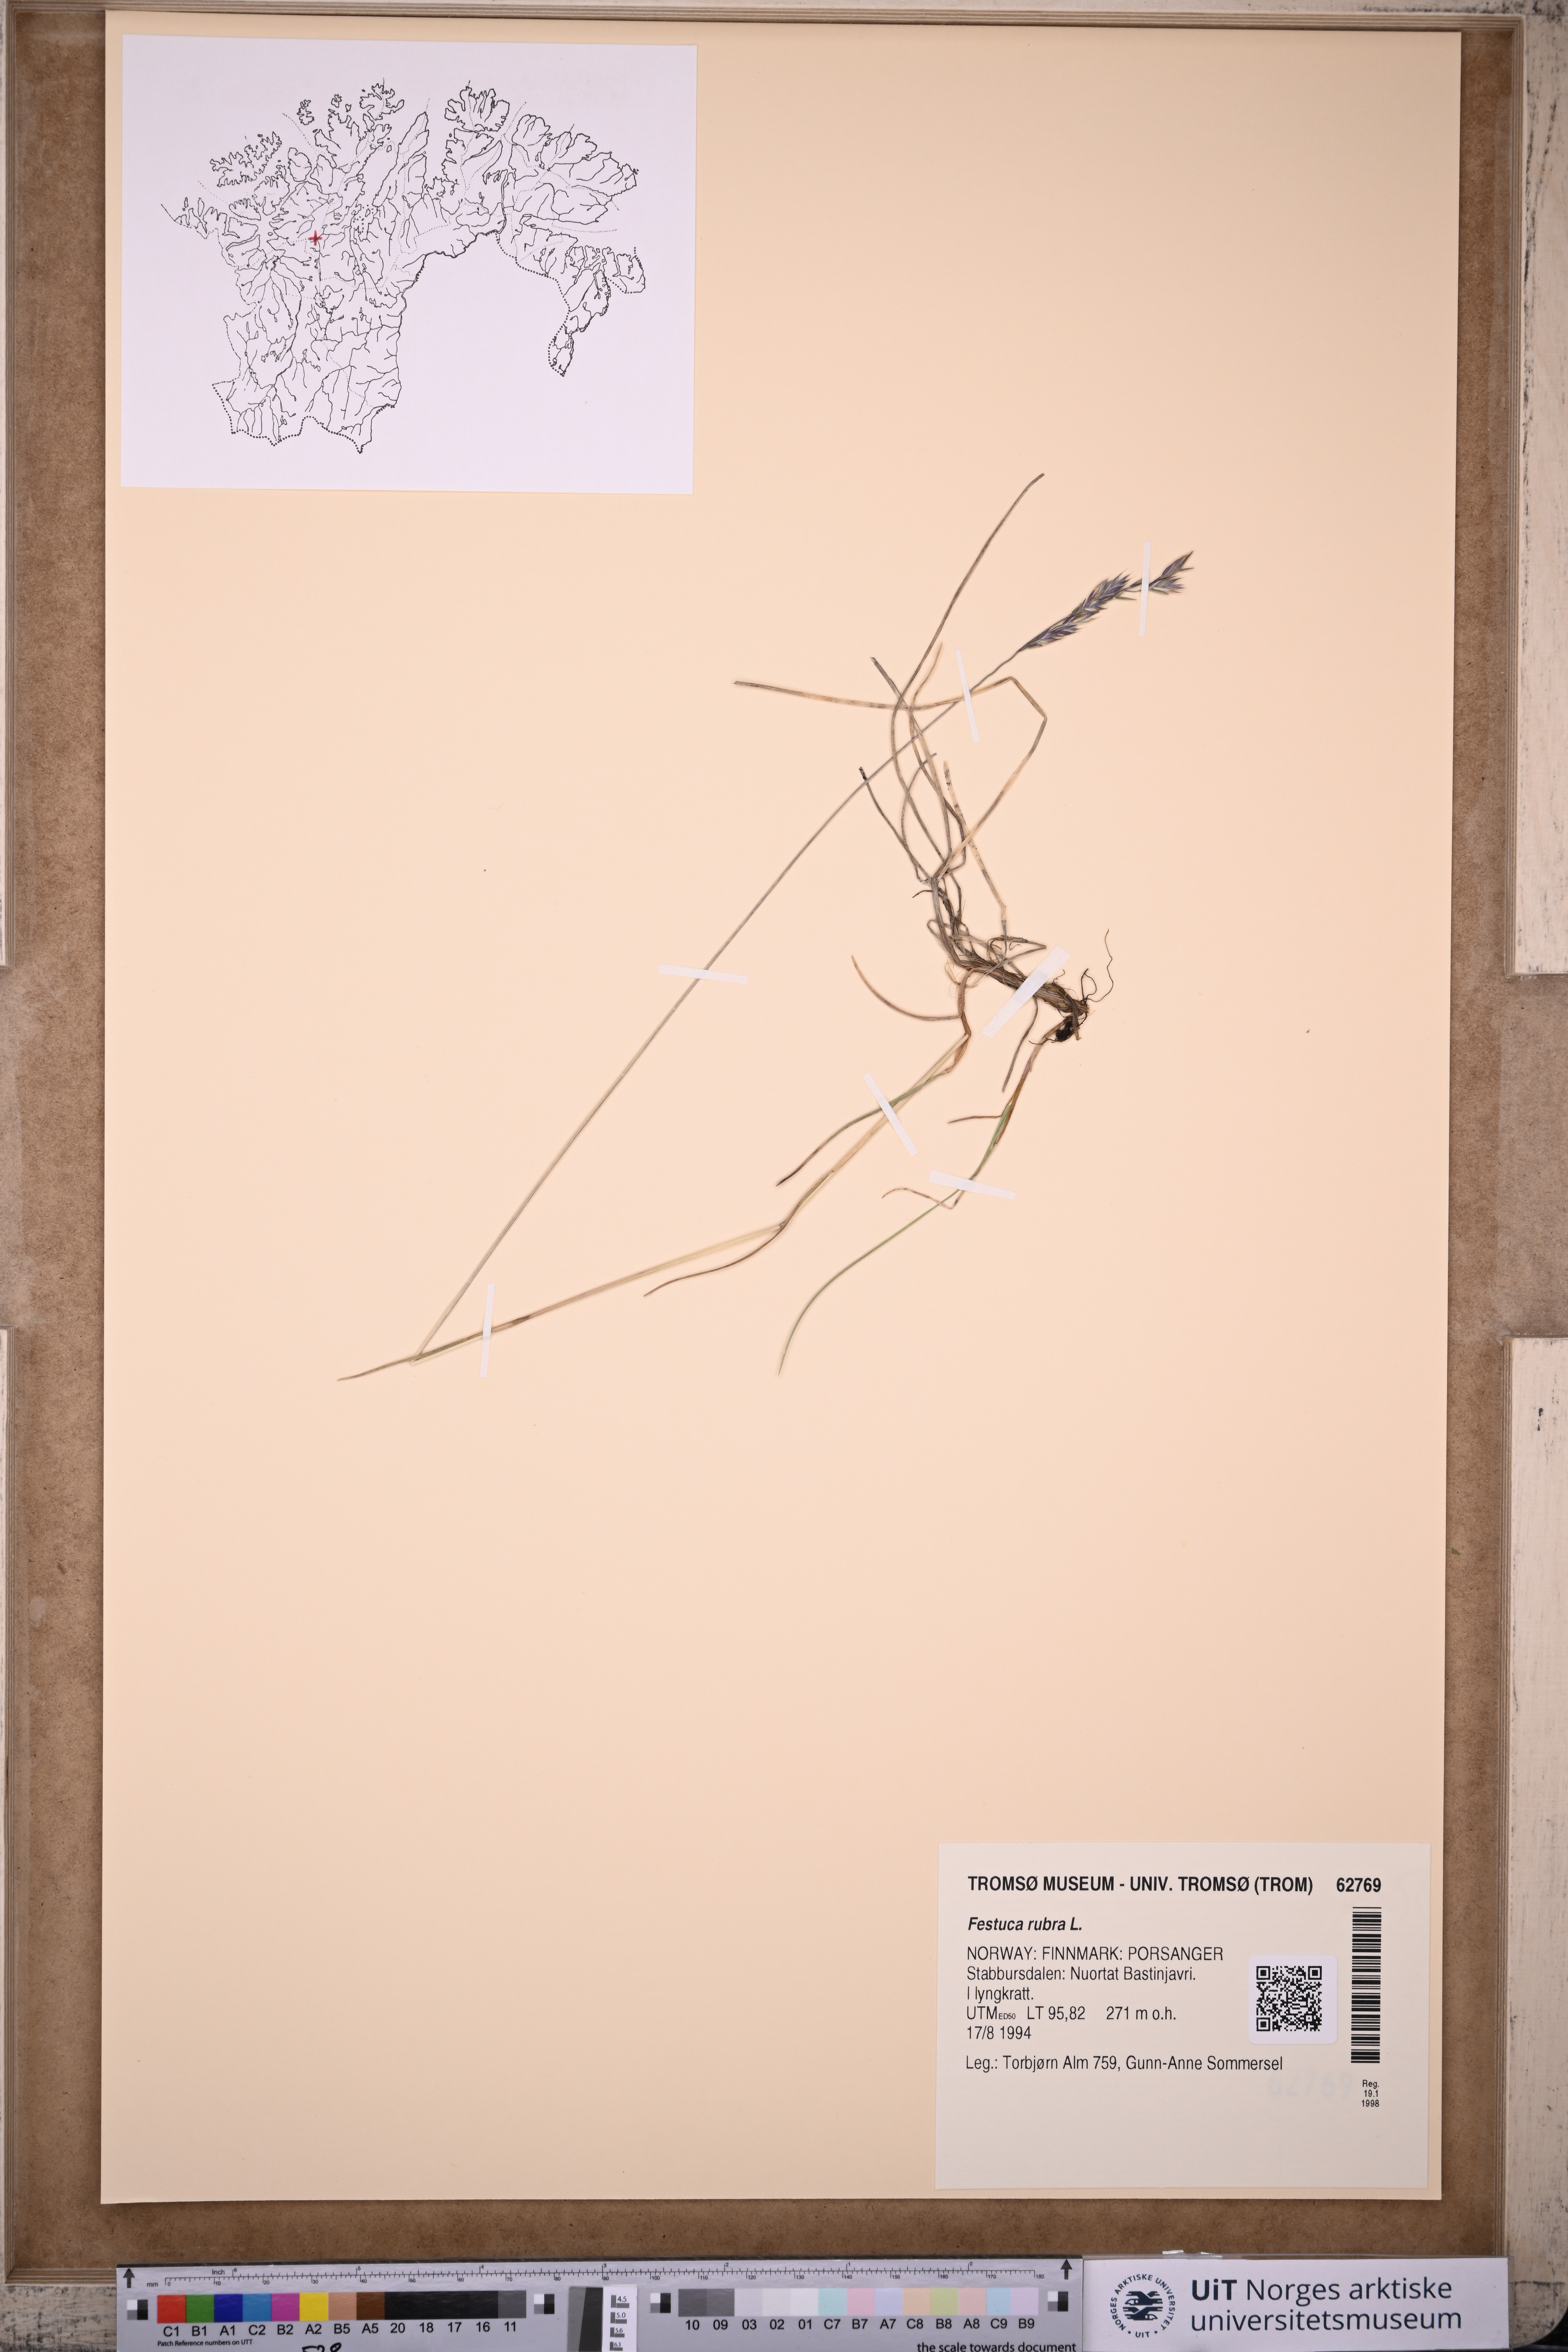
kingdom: Plantae
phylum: Tracheophyta
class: Liliopsida
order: Poales
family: Poaceae
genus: Festuca
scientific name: Festuca rubra
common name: Red fescue
